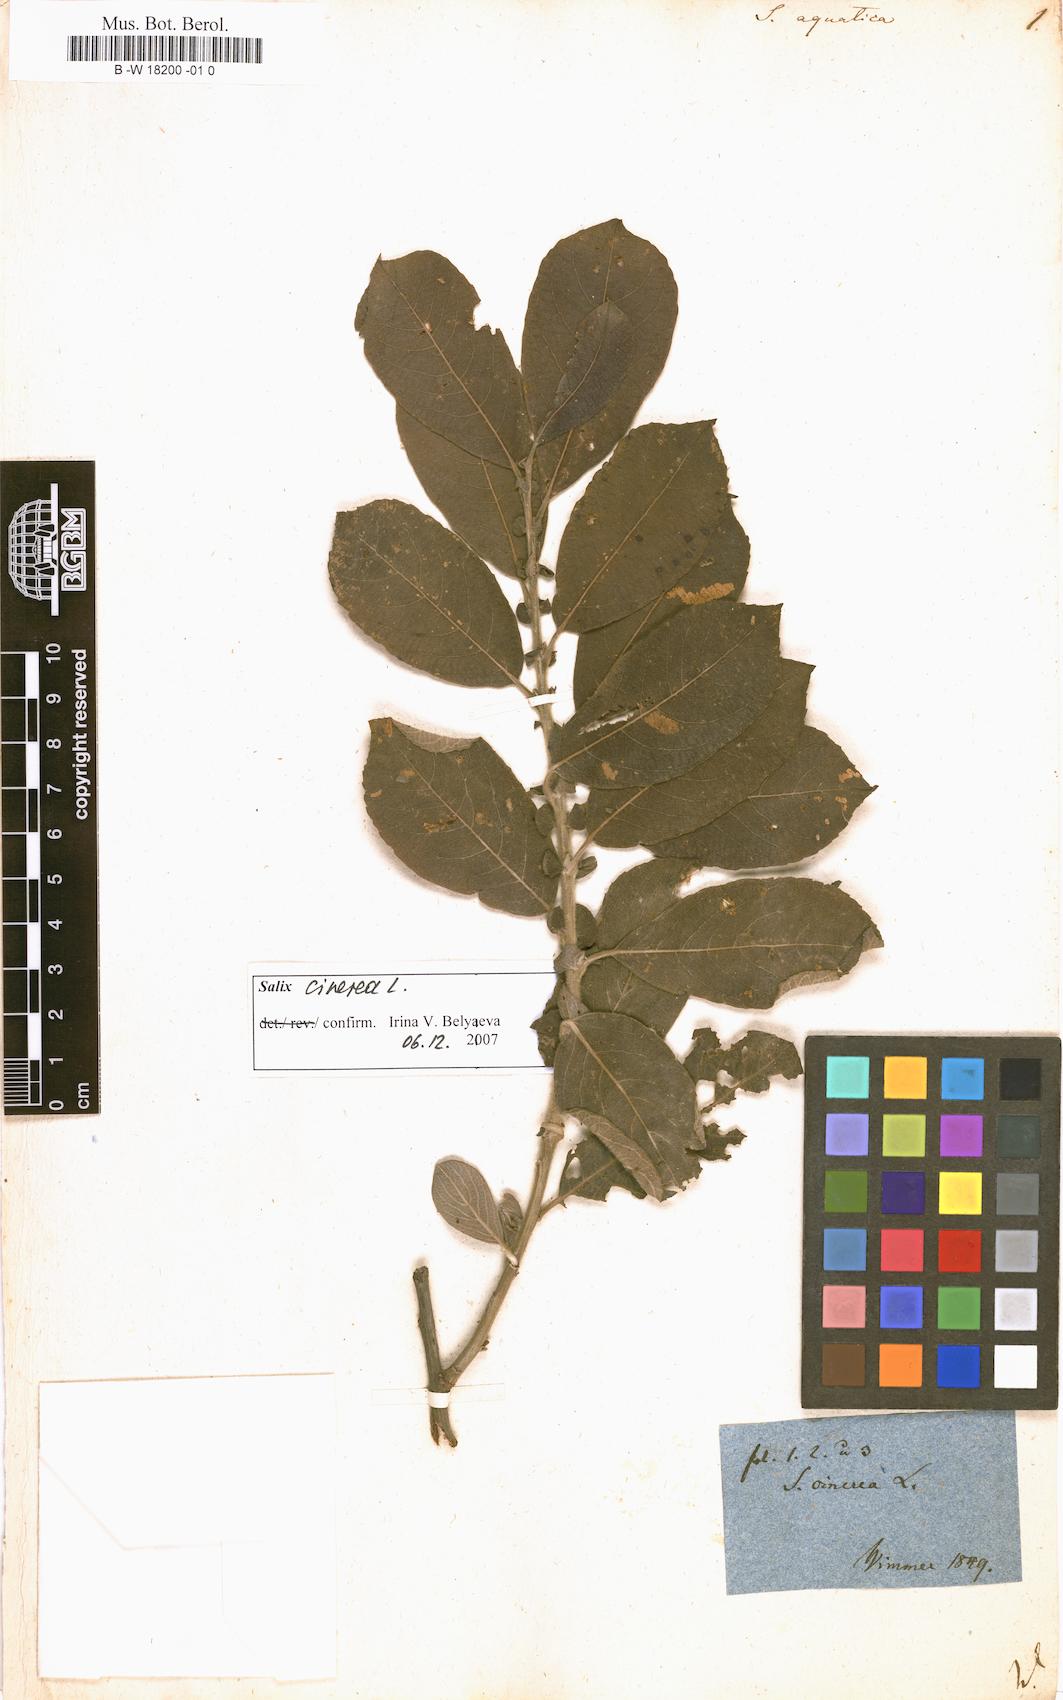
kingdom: Plantae
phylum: Tracheophyta
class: Magnoliopsida
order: Malpighiales
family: Salicaceae
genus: Salix
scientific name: Salix
